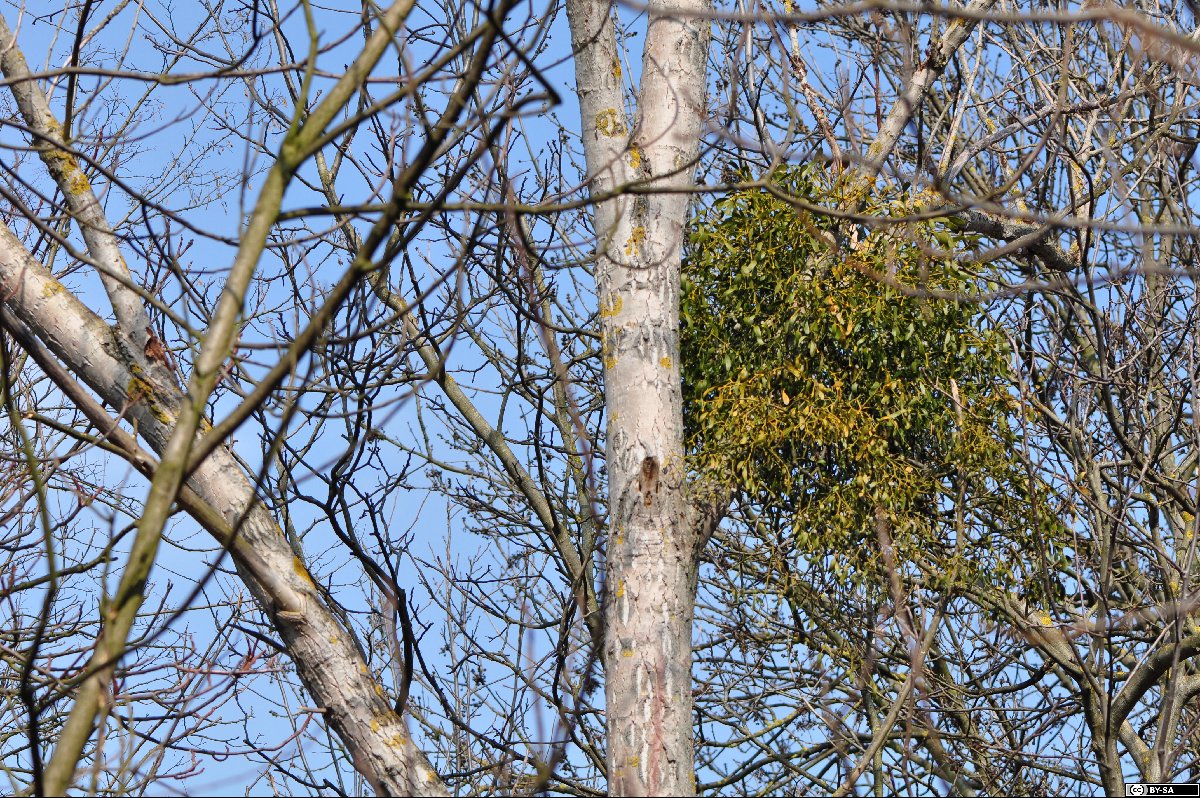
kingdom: Plantae
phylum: Tracheophyta
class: Magnoliopsida
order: Santalales
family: Viscaceae
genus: Viscum
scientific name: Viscum album
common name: Mistletoe
